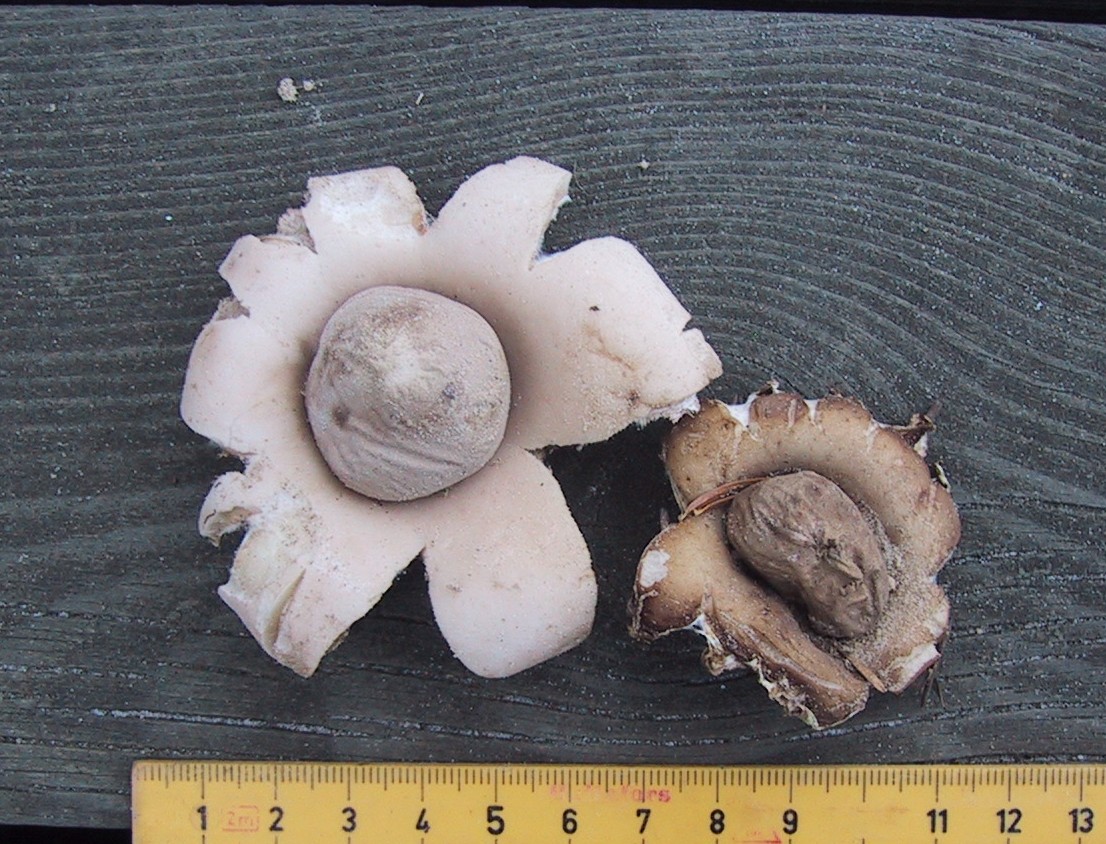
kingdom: Fungi
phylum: Basidiomycota
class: Agaricomycetes
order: Geastrales
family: Geastraceae
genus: Geastrum
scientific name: Geastrum fimbriatum
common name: frynset stjernebold
